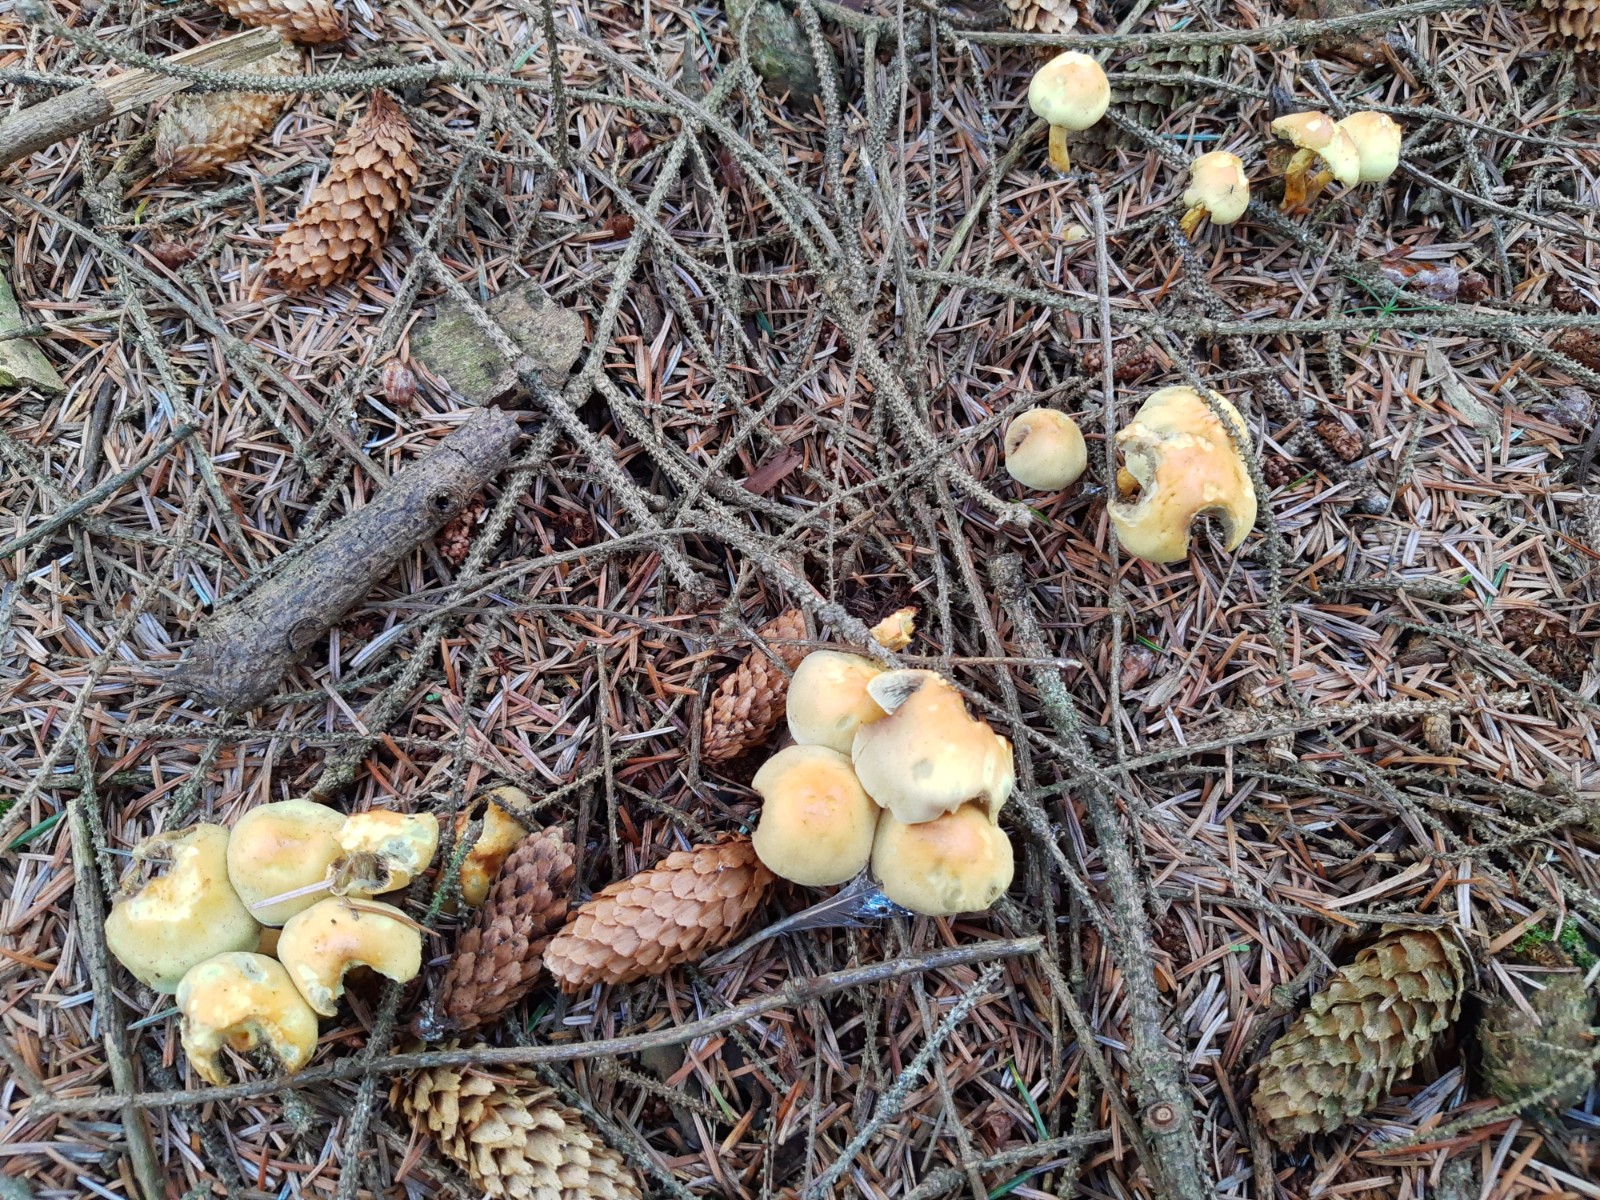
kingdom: Fungi
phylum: Basidiomycota
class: Agaricomycetes
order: Agaricales
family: Strophariaceae
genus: Hypholoma
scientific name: Hypholoma fasciculare
